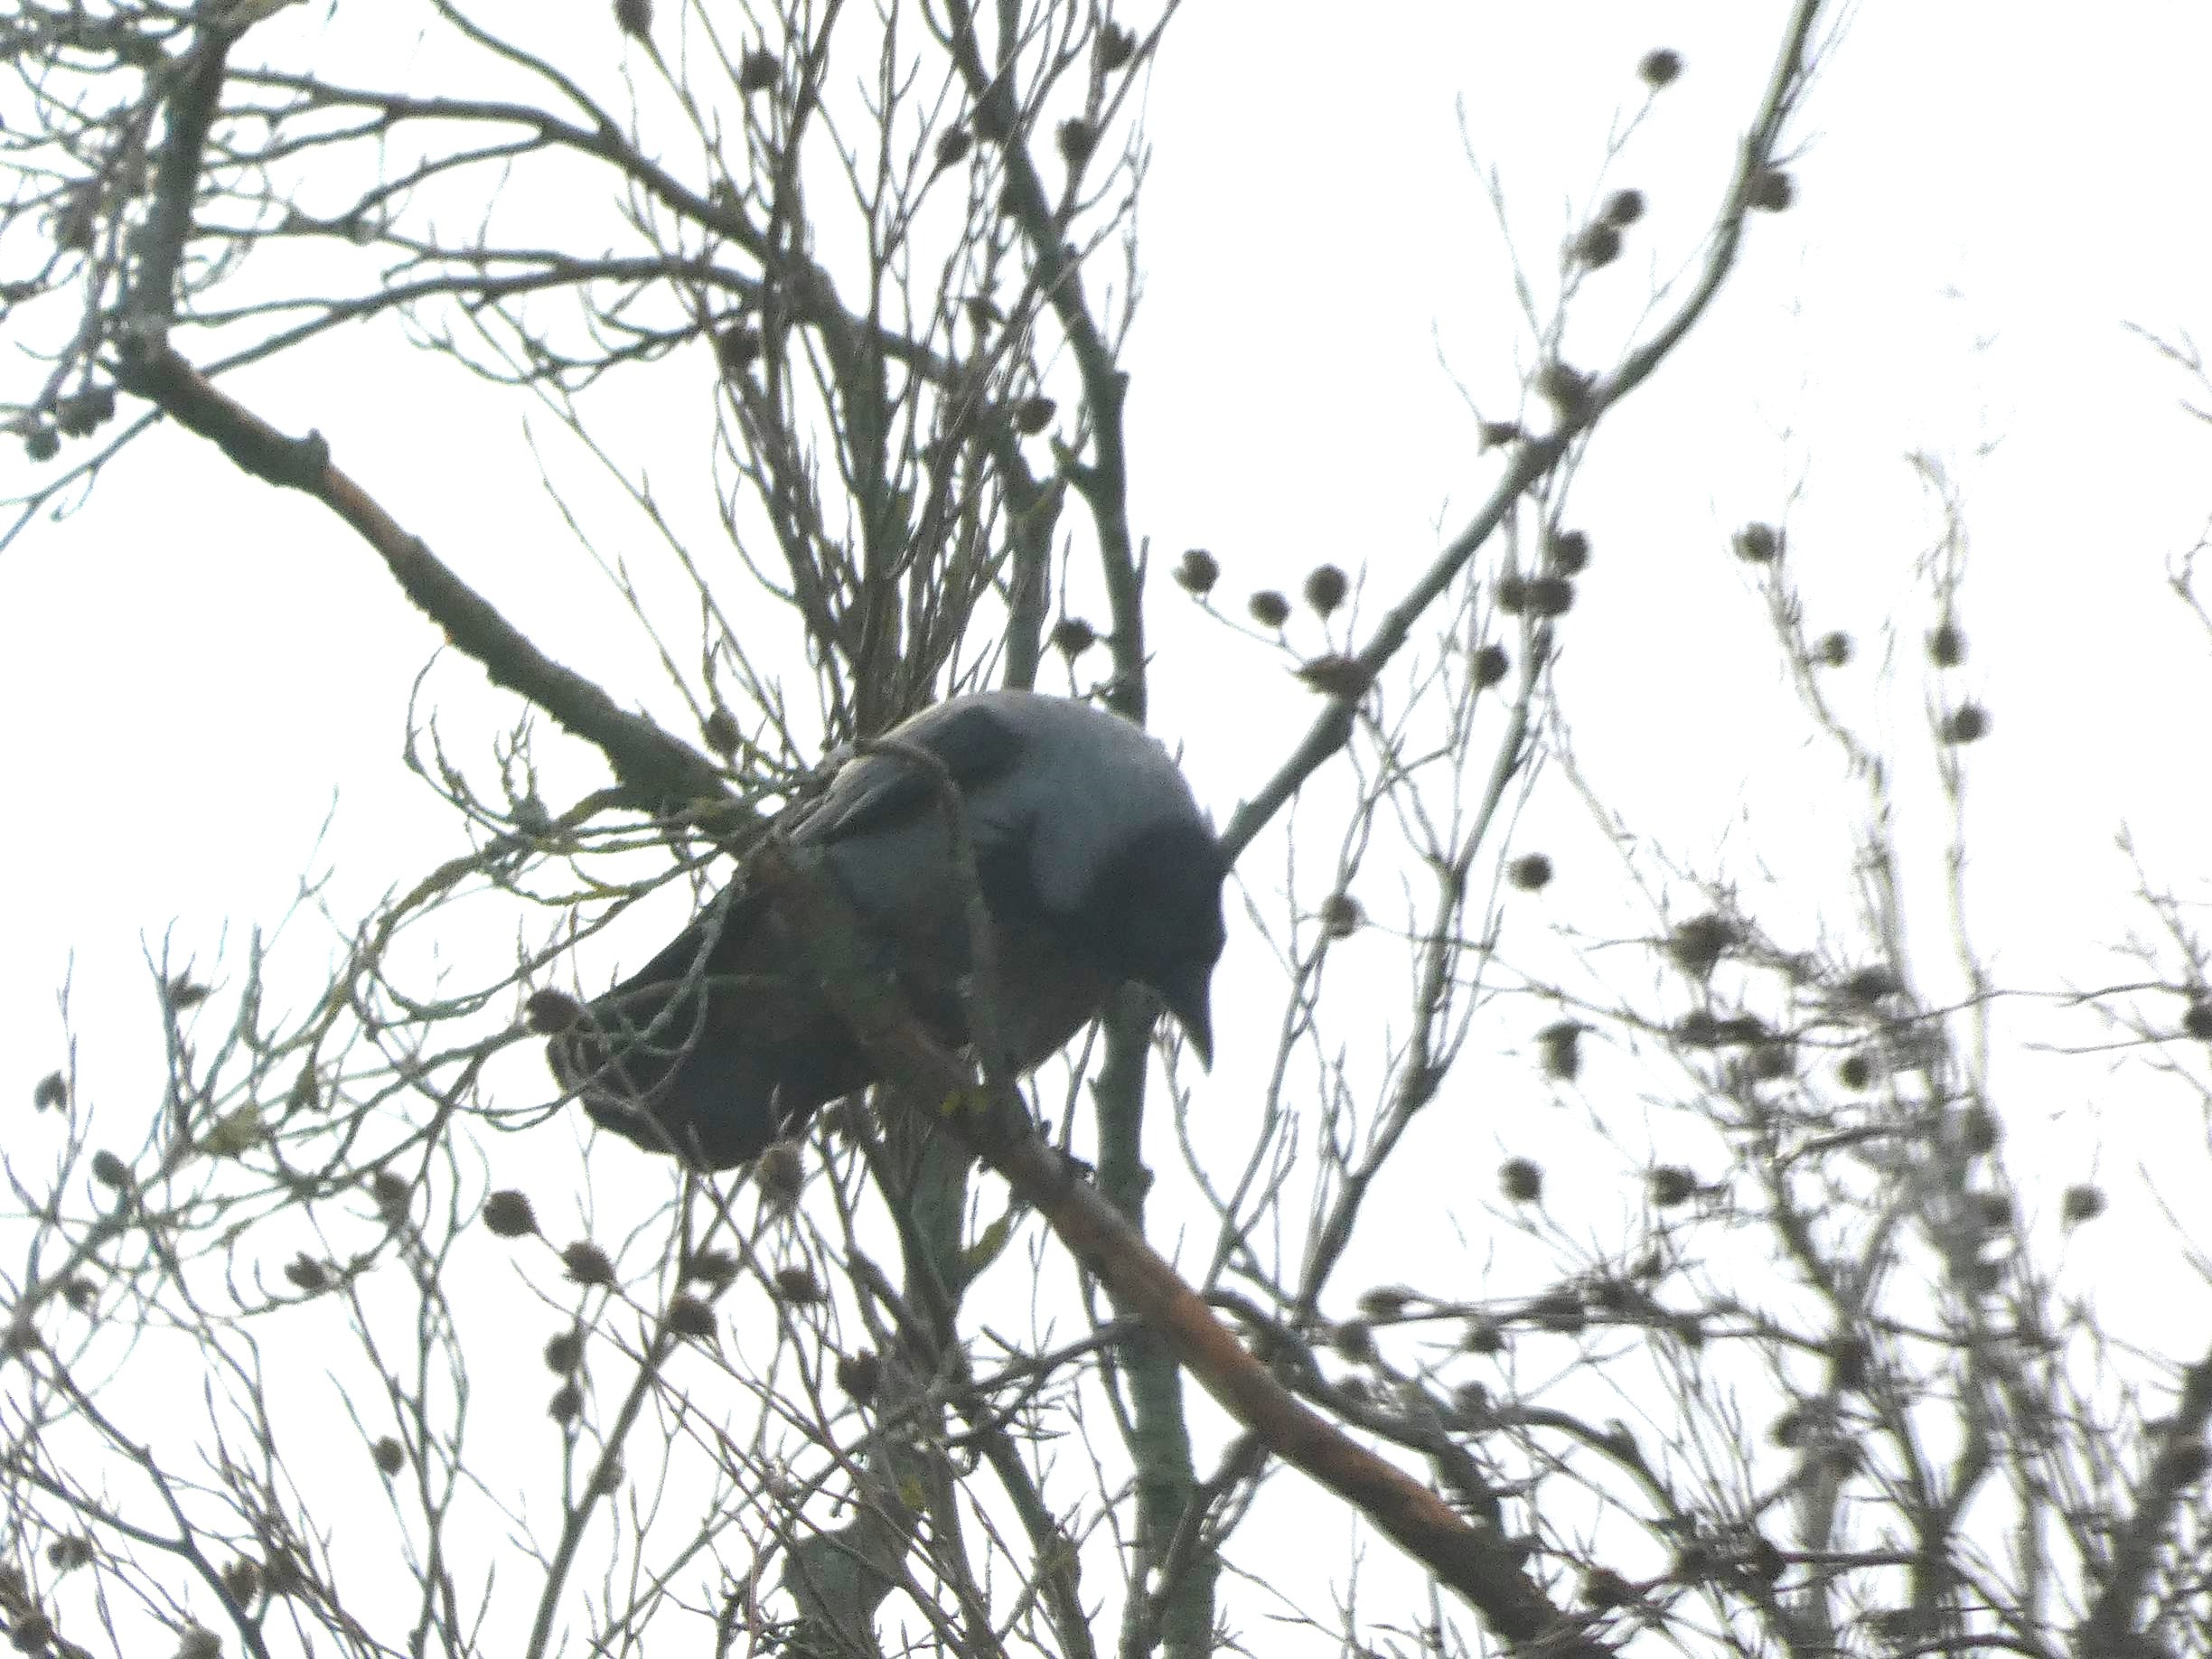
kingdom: Animalia
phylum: Chordata
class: Aves
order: Passeriformes
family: Corvidae
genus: Corvus
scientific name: Corvus cornix
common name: Gråkrage
